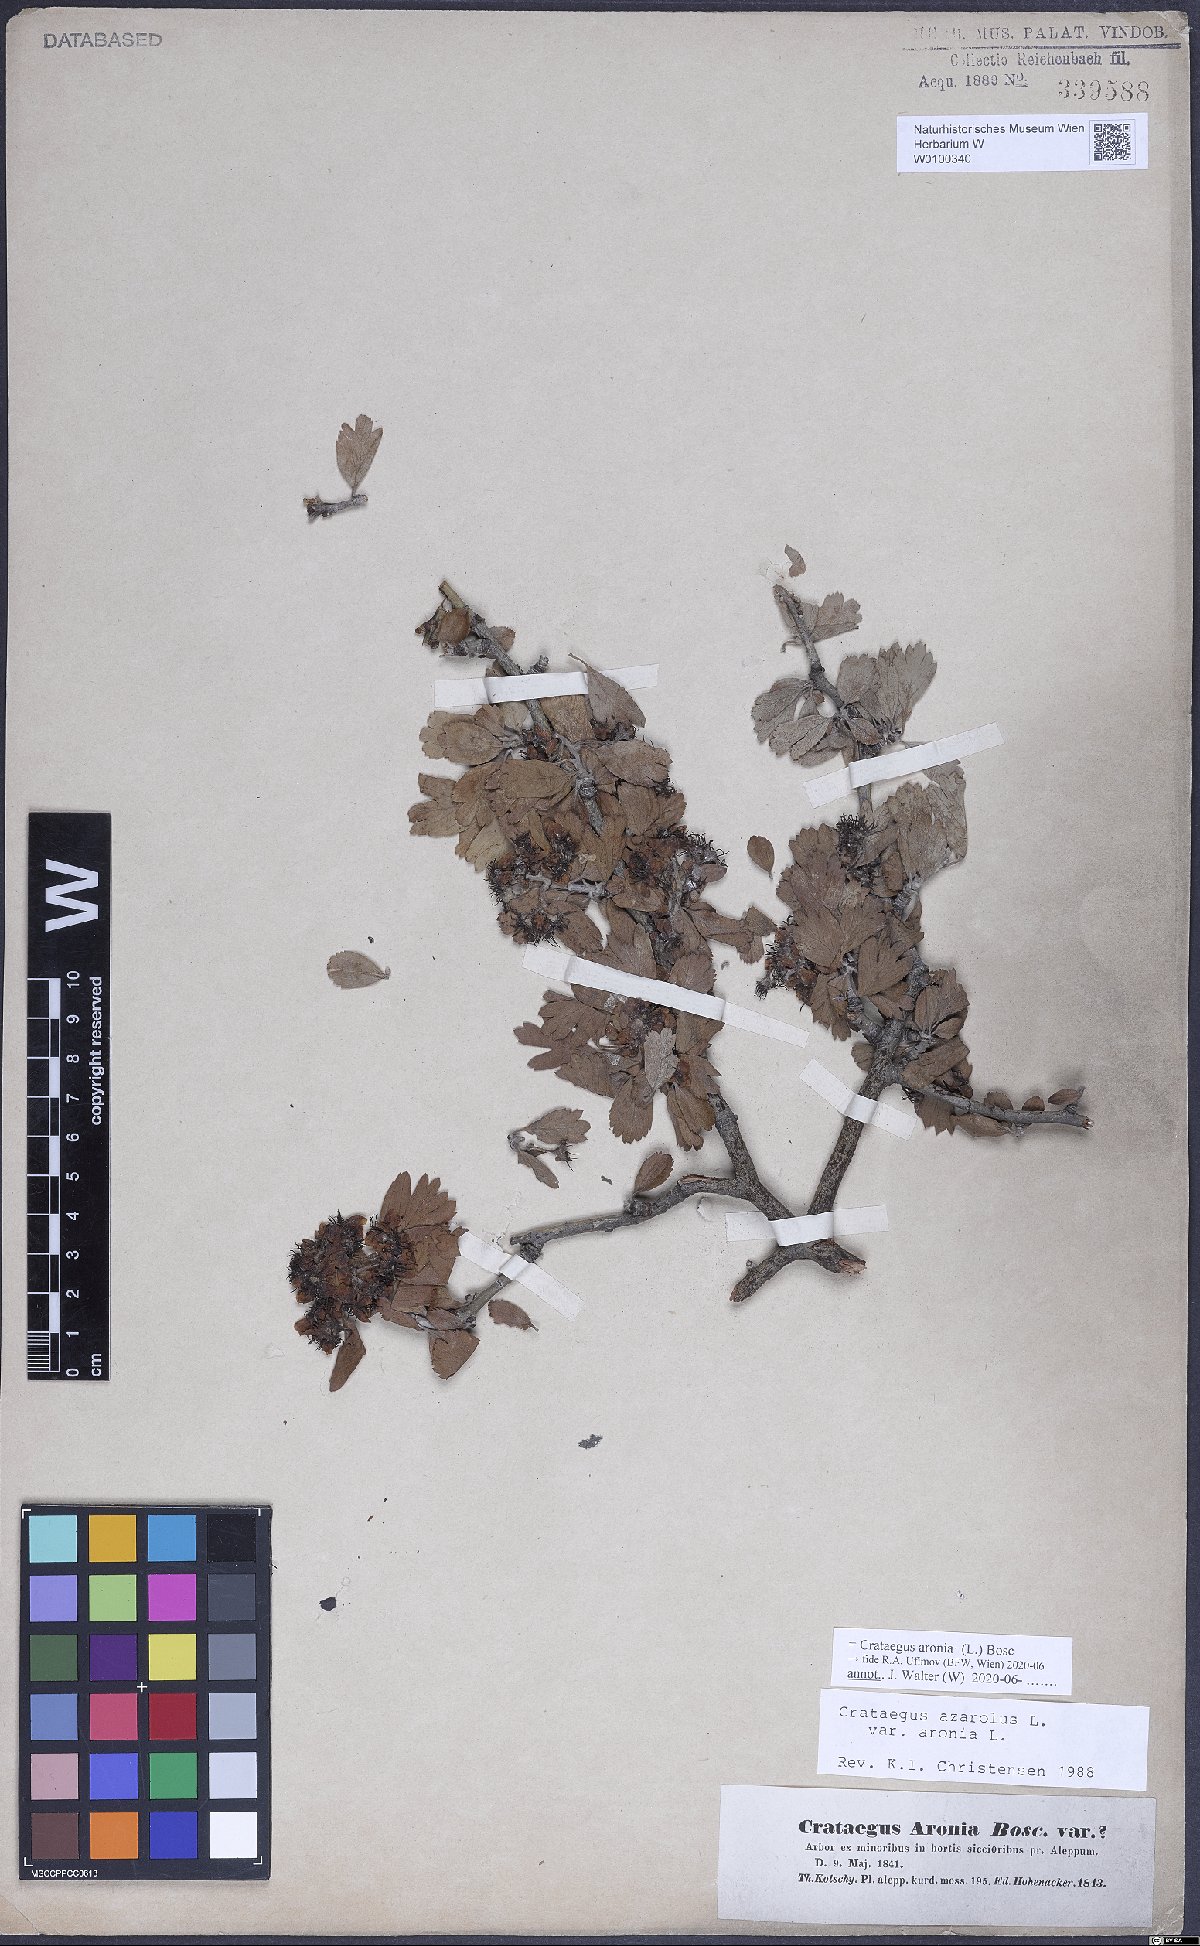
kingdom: Plantae
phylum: Tracheophyta
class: Magnoliopsida
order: Rosales
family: Rosaceae
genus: Crataegus
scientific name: Crataegus azarolus
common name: Azarole
